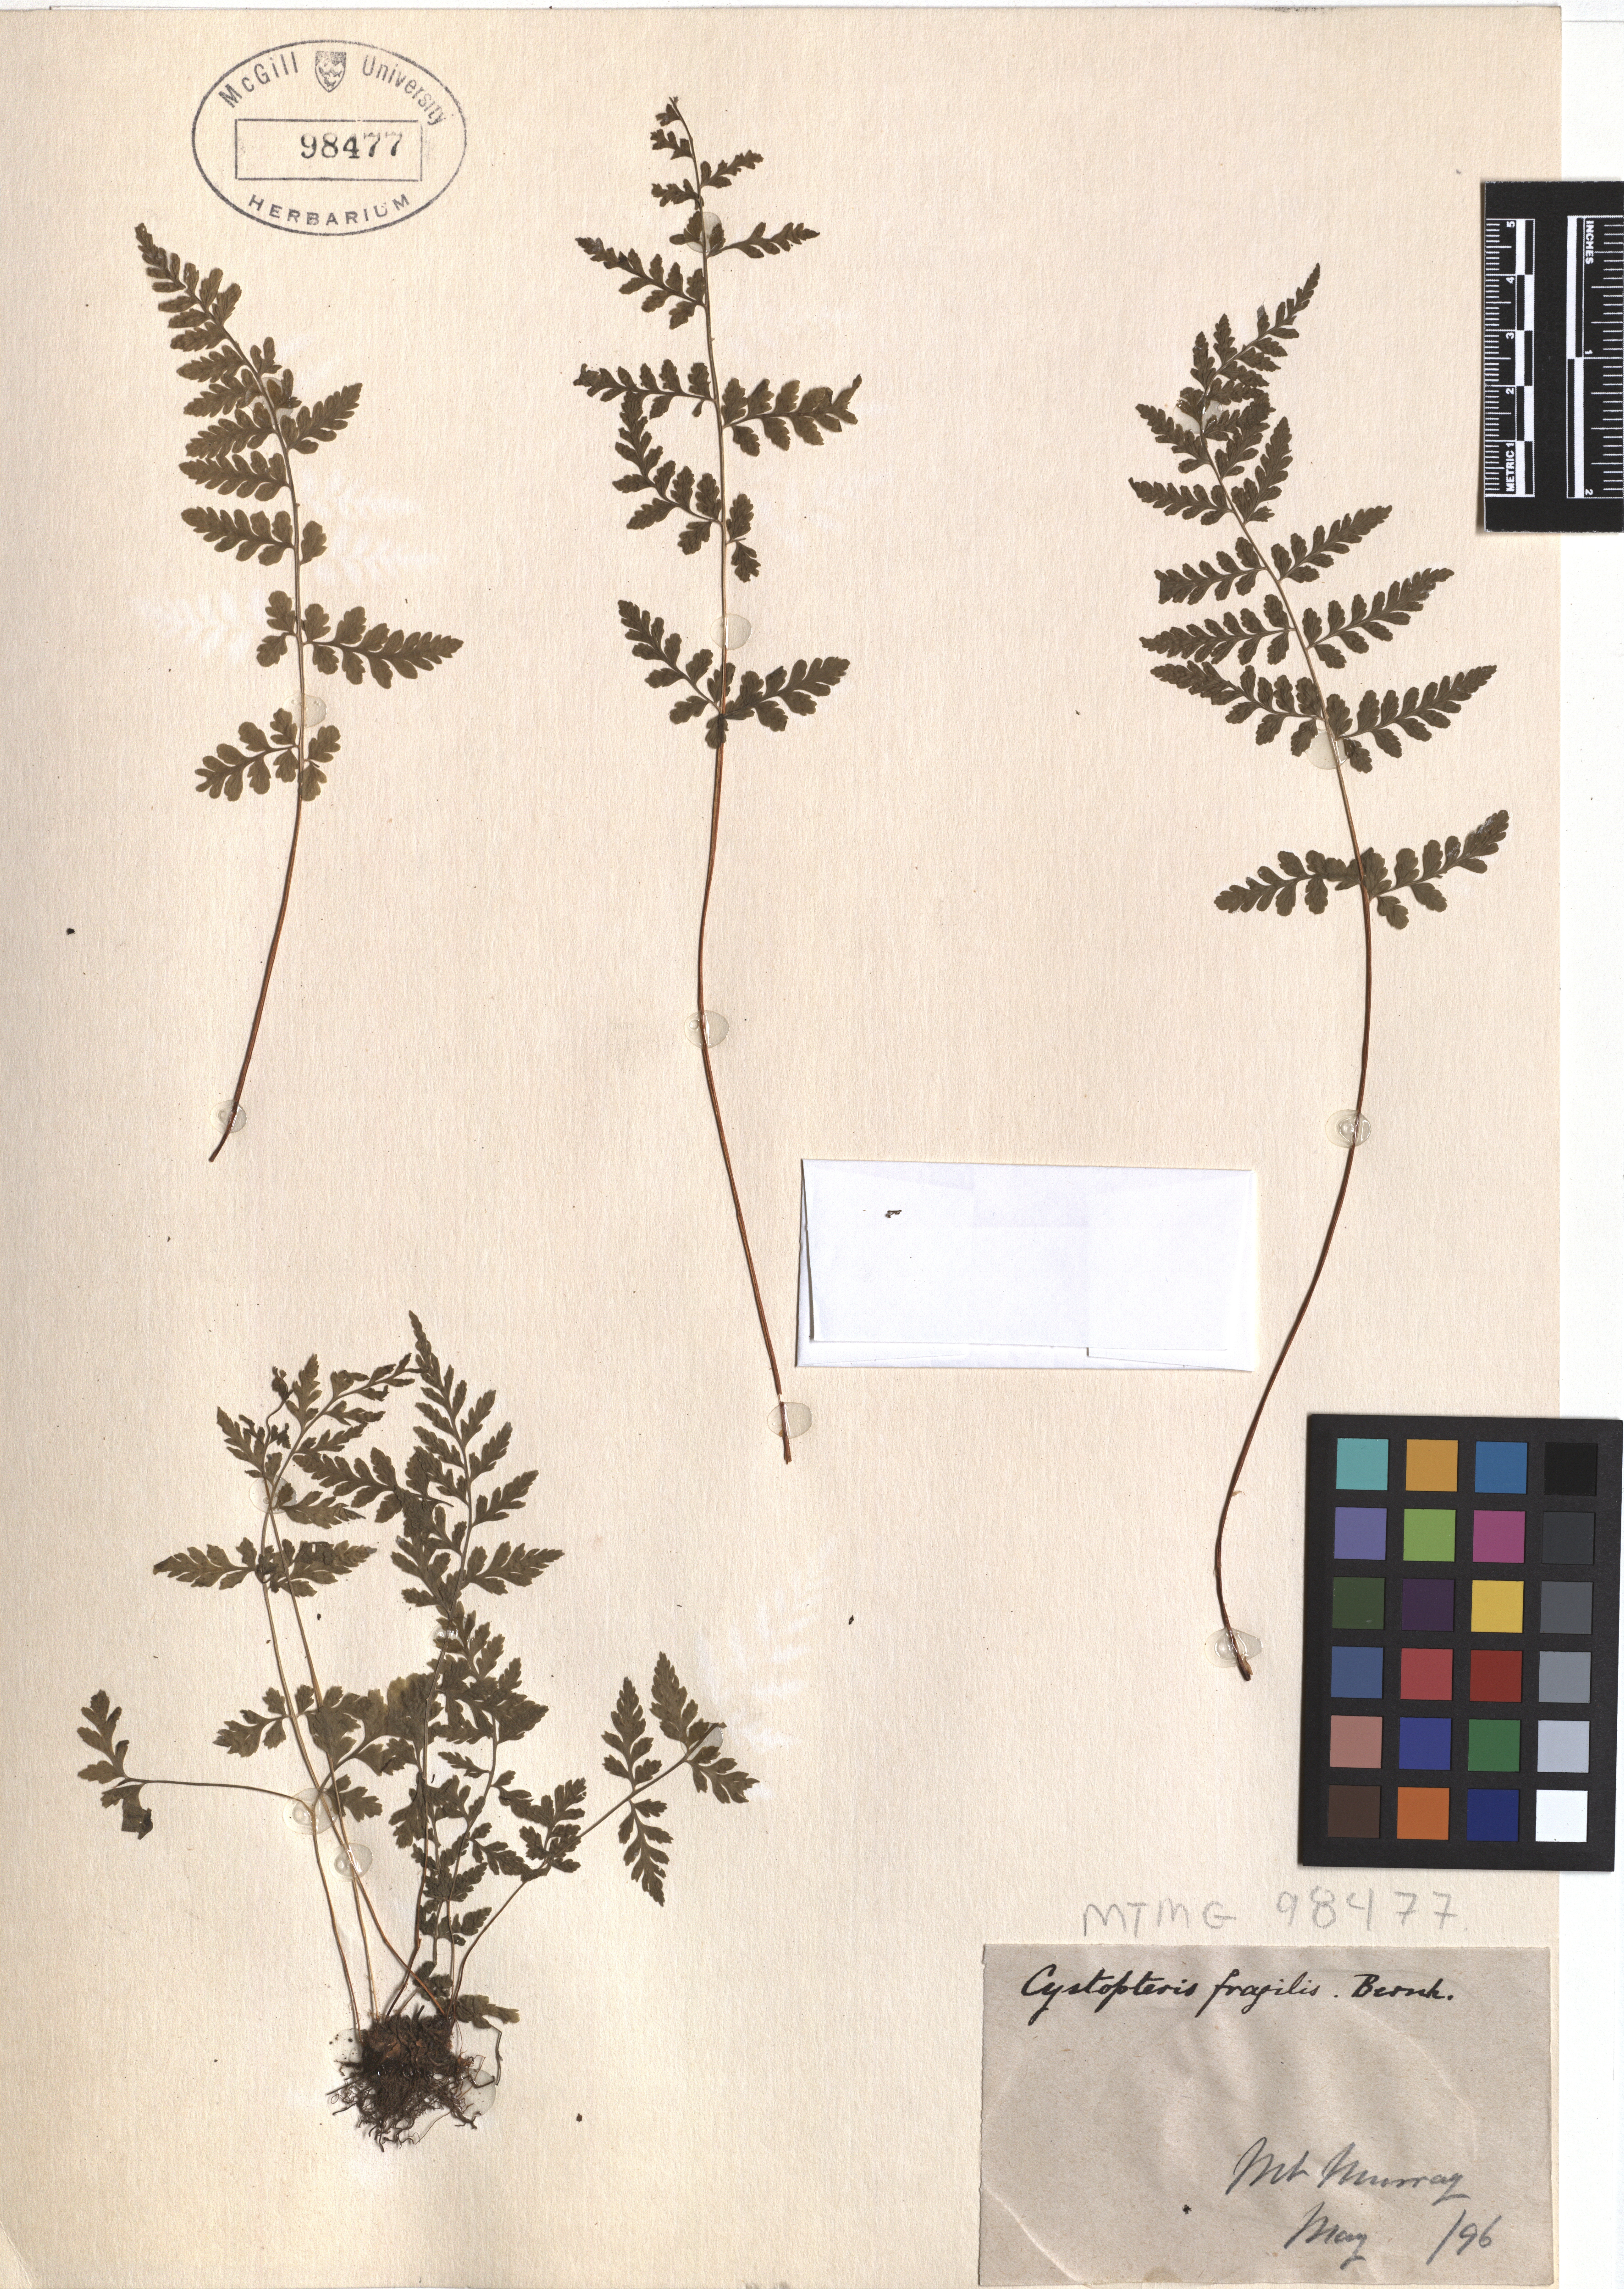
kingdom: Plantae
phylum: Tracheophyta
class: Polypodiopsida
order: Polypodiales
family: Cystopteridaceae
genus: Cystopteris
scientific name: Cystopteris fragilis
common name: Brittle bladder fern
